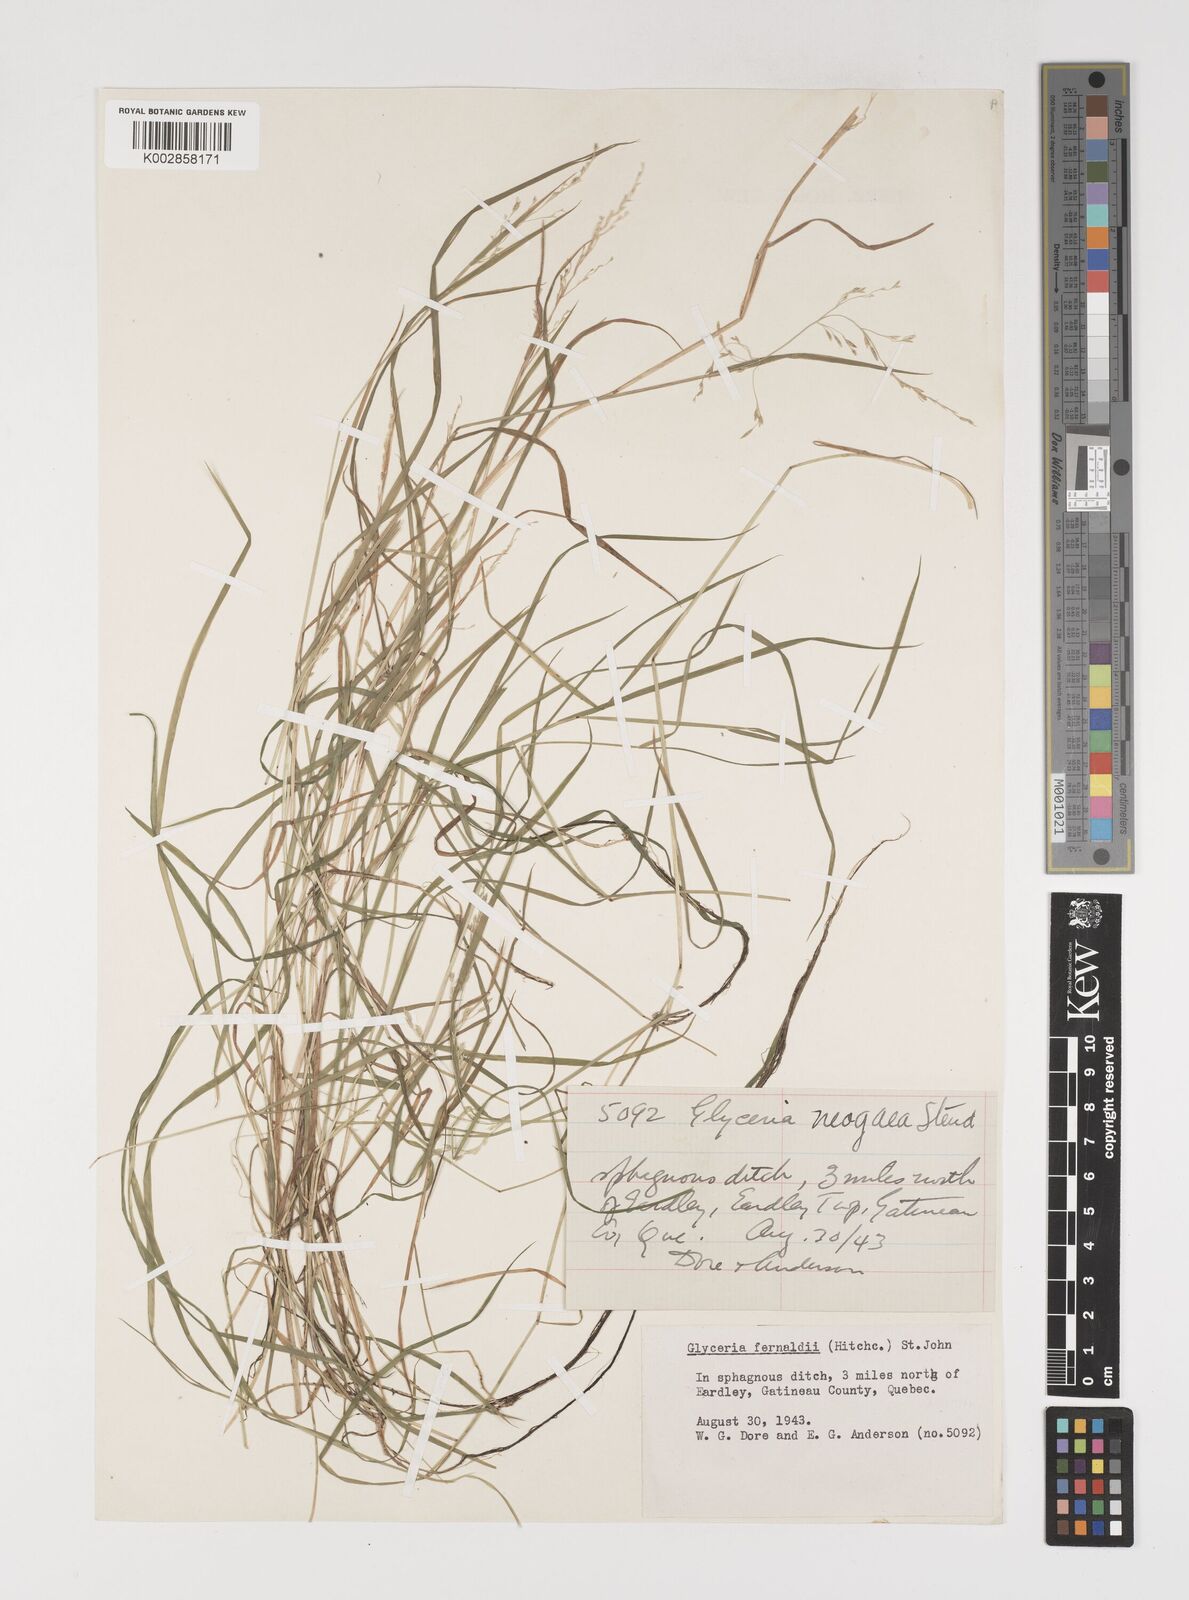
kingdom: Plantae
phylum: Tracheophyta
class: Liliopsida
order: Poales
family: Poaceae
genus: Torreyochloa
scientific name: Torreyochloa pallida
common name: Pale false mannagrass
